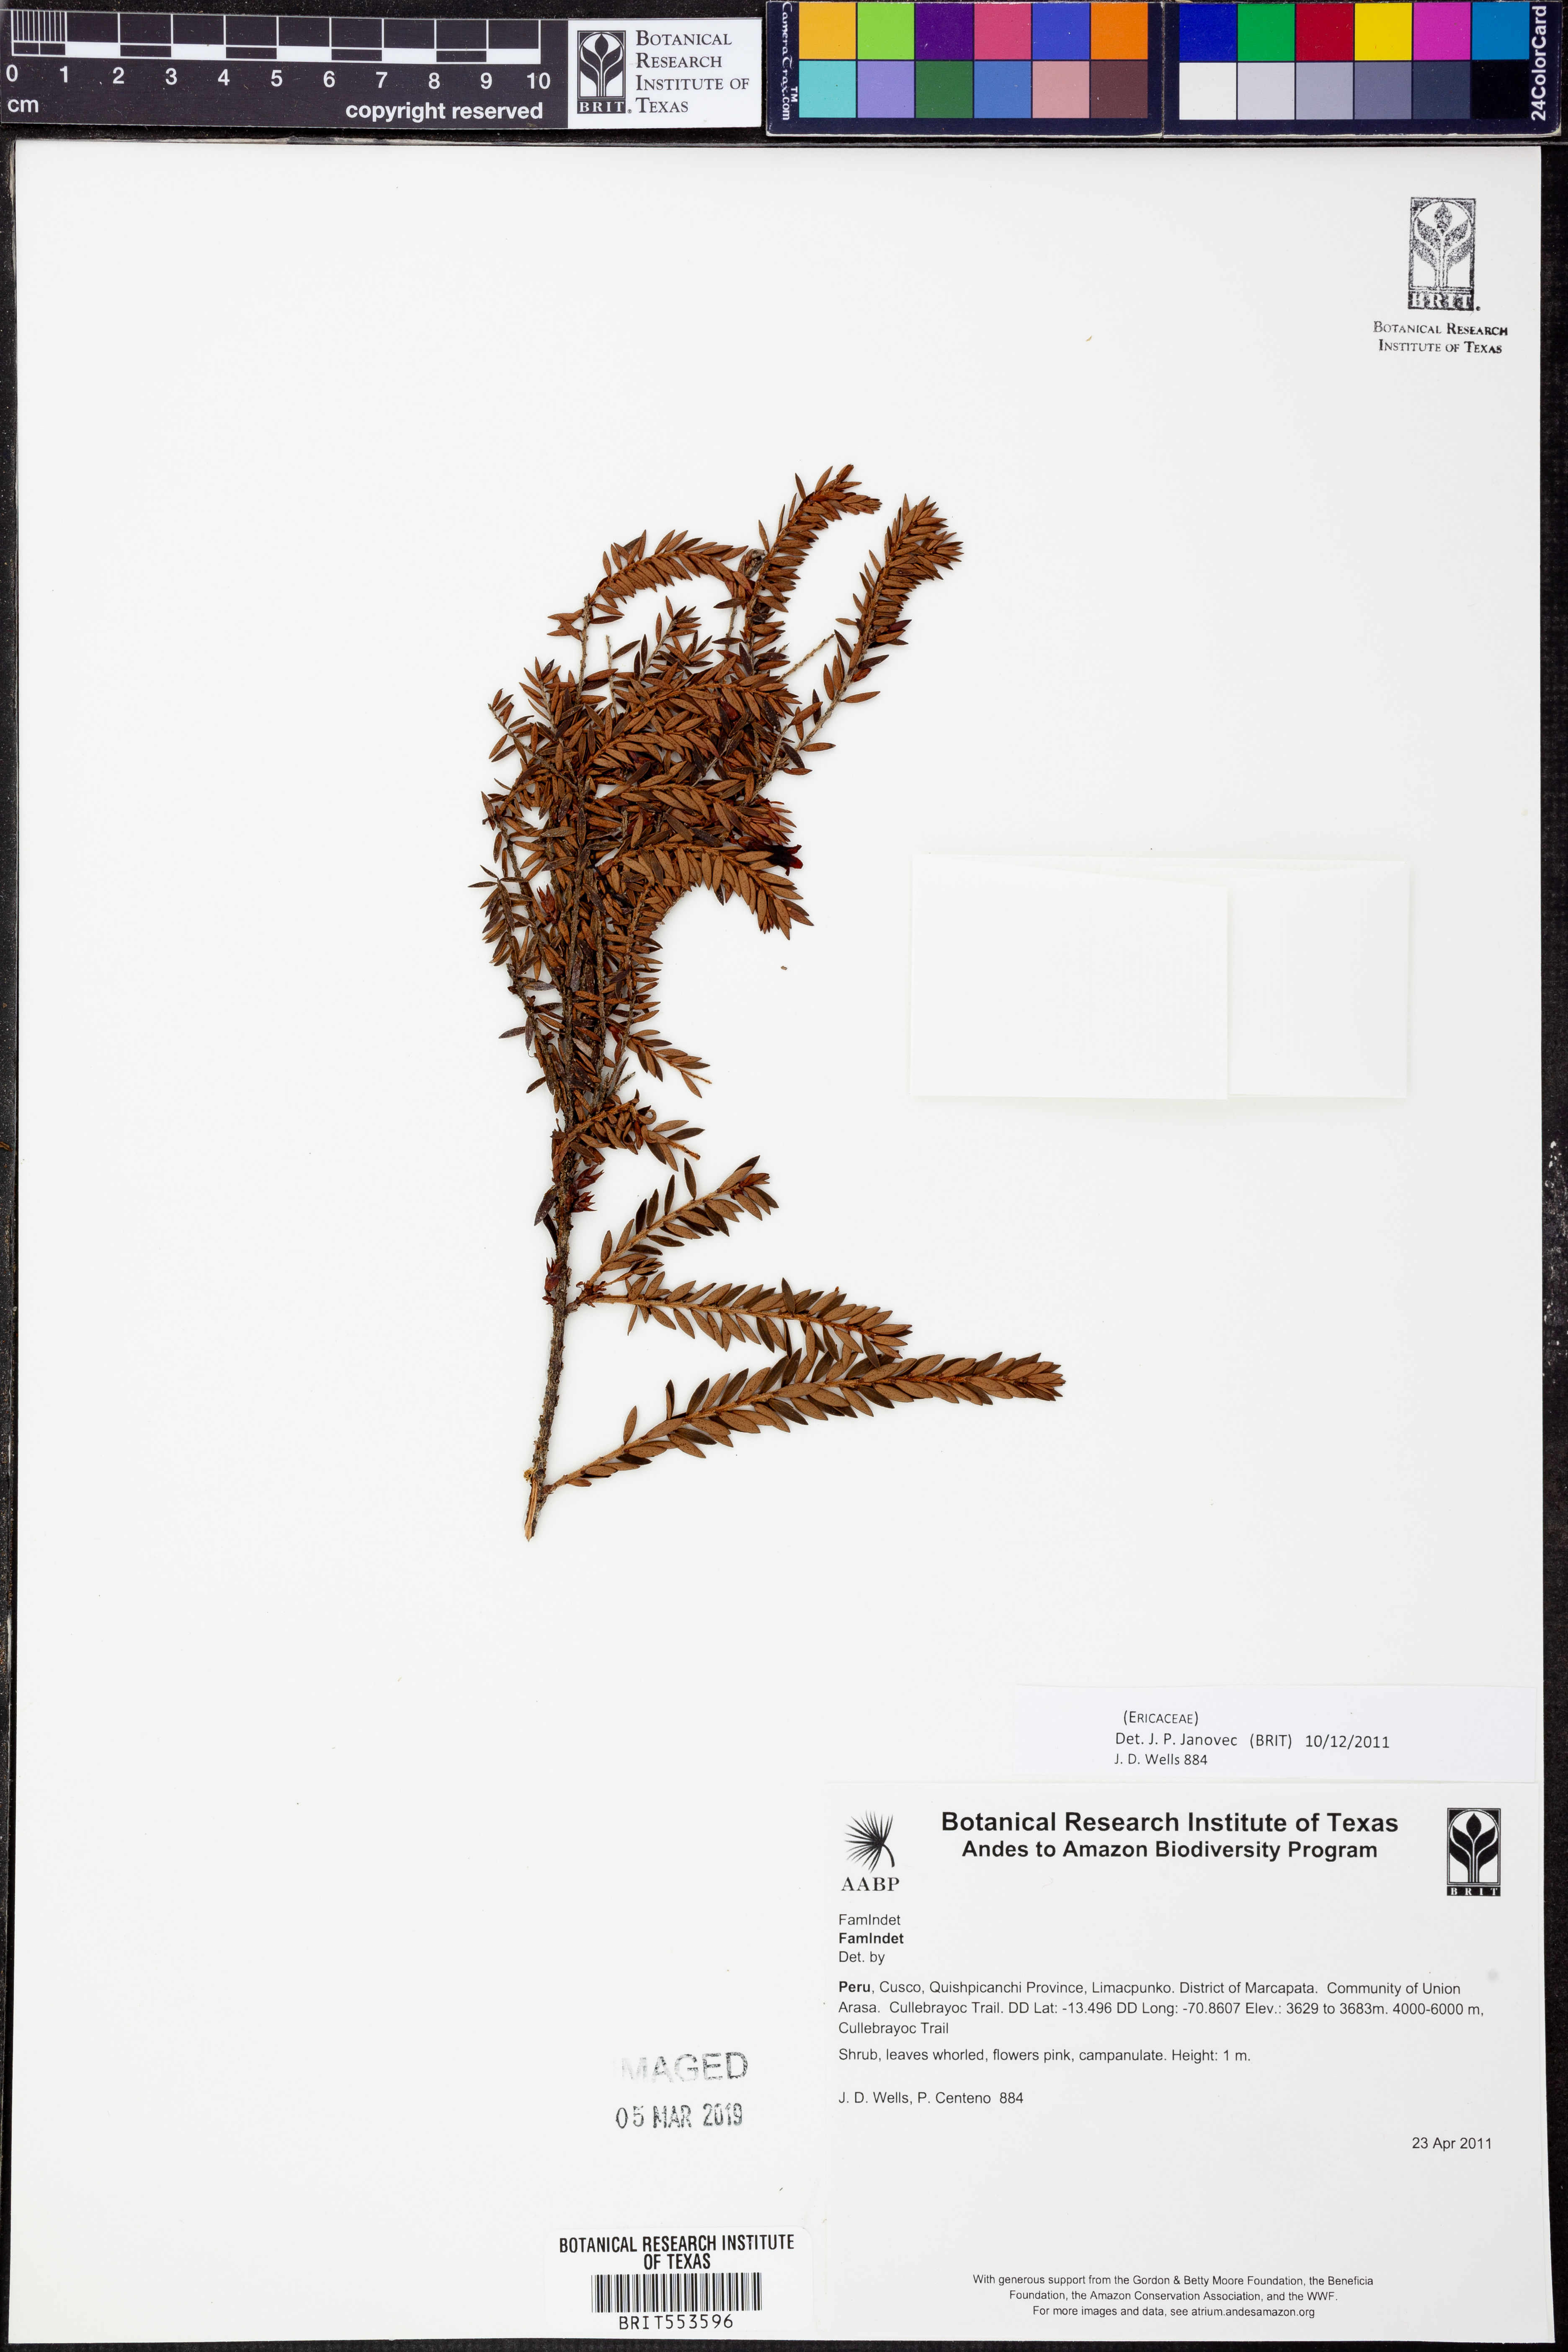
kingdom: Plantae
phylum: Tracheophyta
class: Magnoliopsida
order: Ericales
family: Ericaceae
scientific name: Ericaceae
